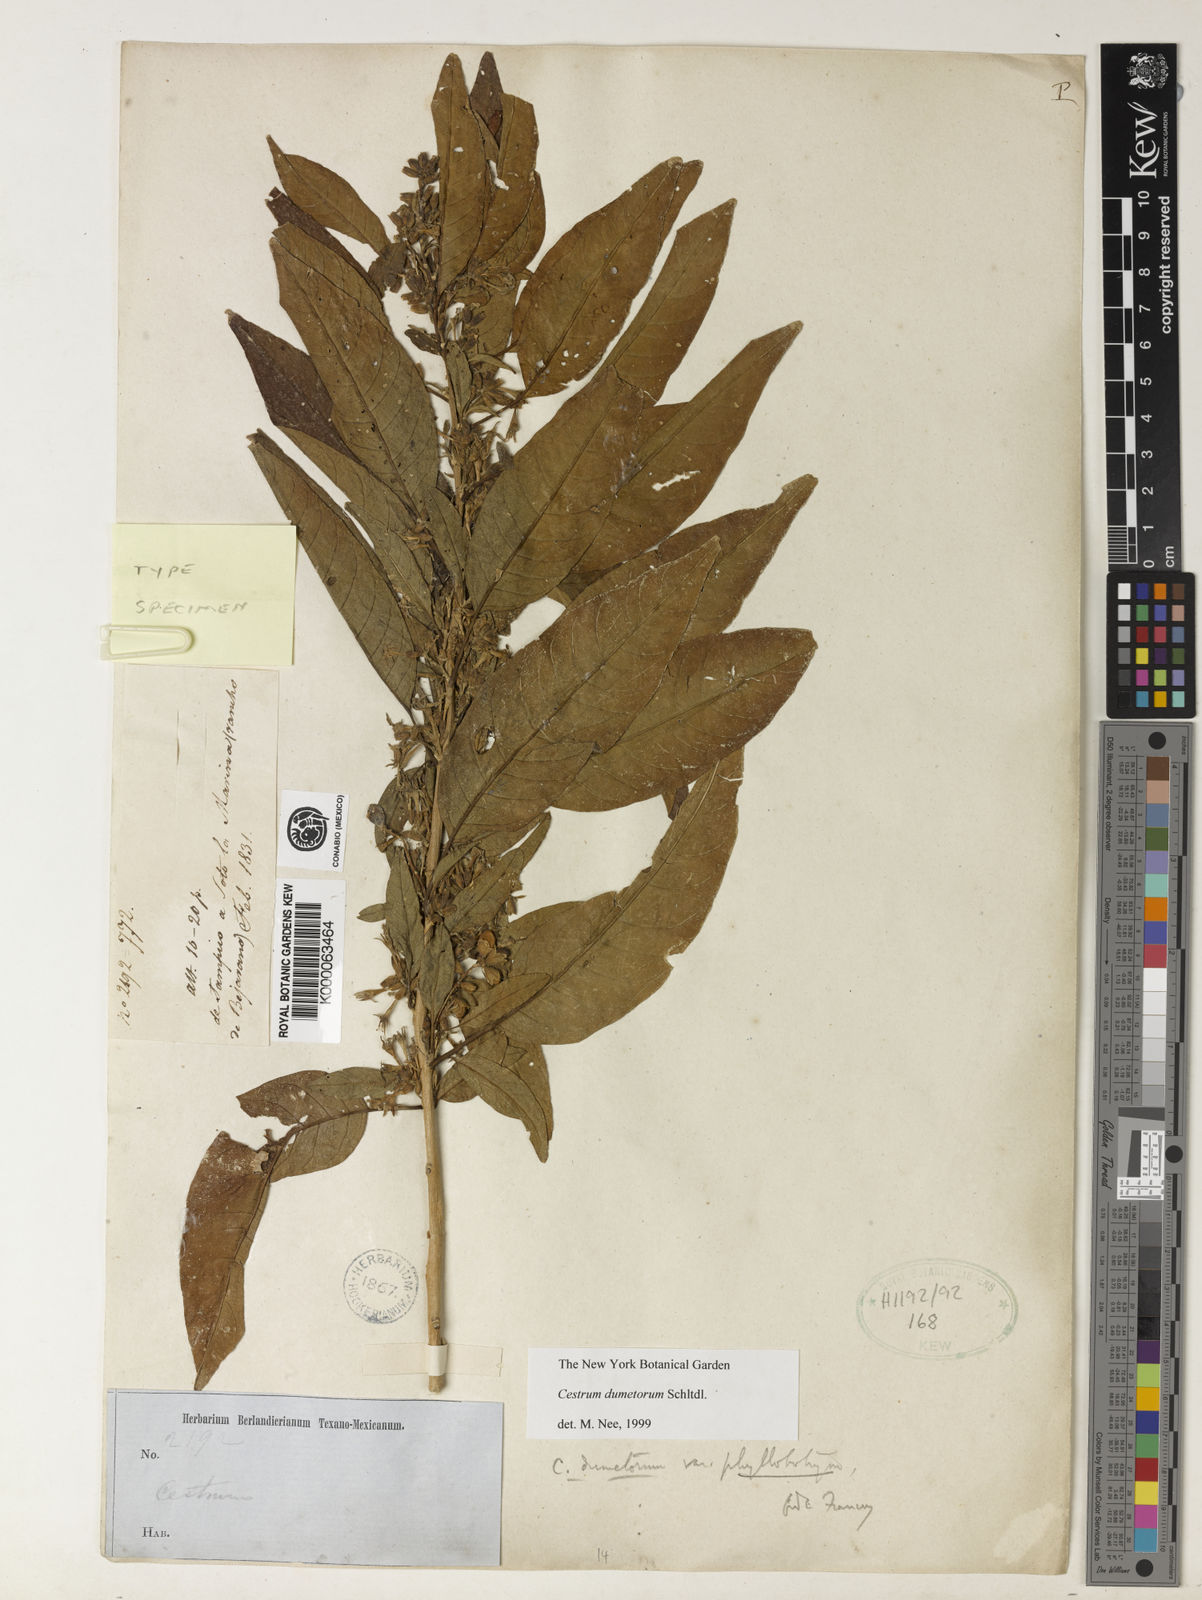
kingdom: Plantae
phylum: Tracheophyta
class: Magnoliopsida
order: Solanales
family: Solanaceae
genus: Cestrum
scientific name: Cestrum dumetorum
